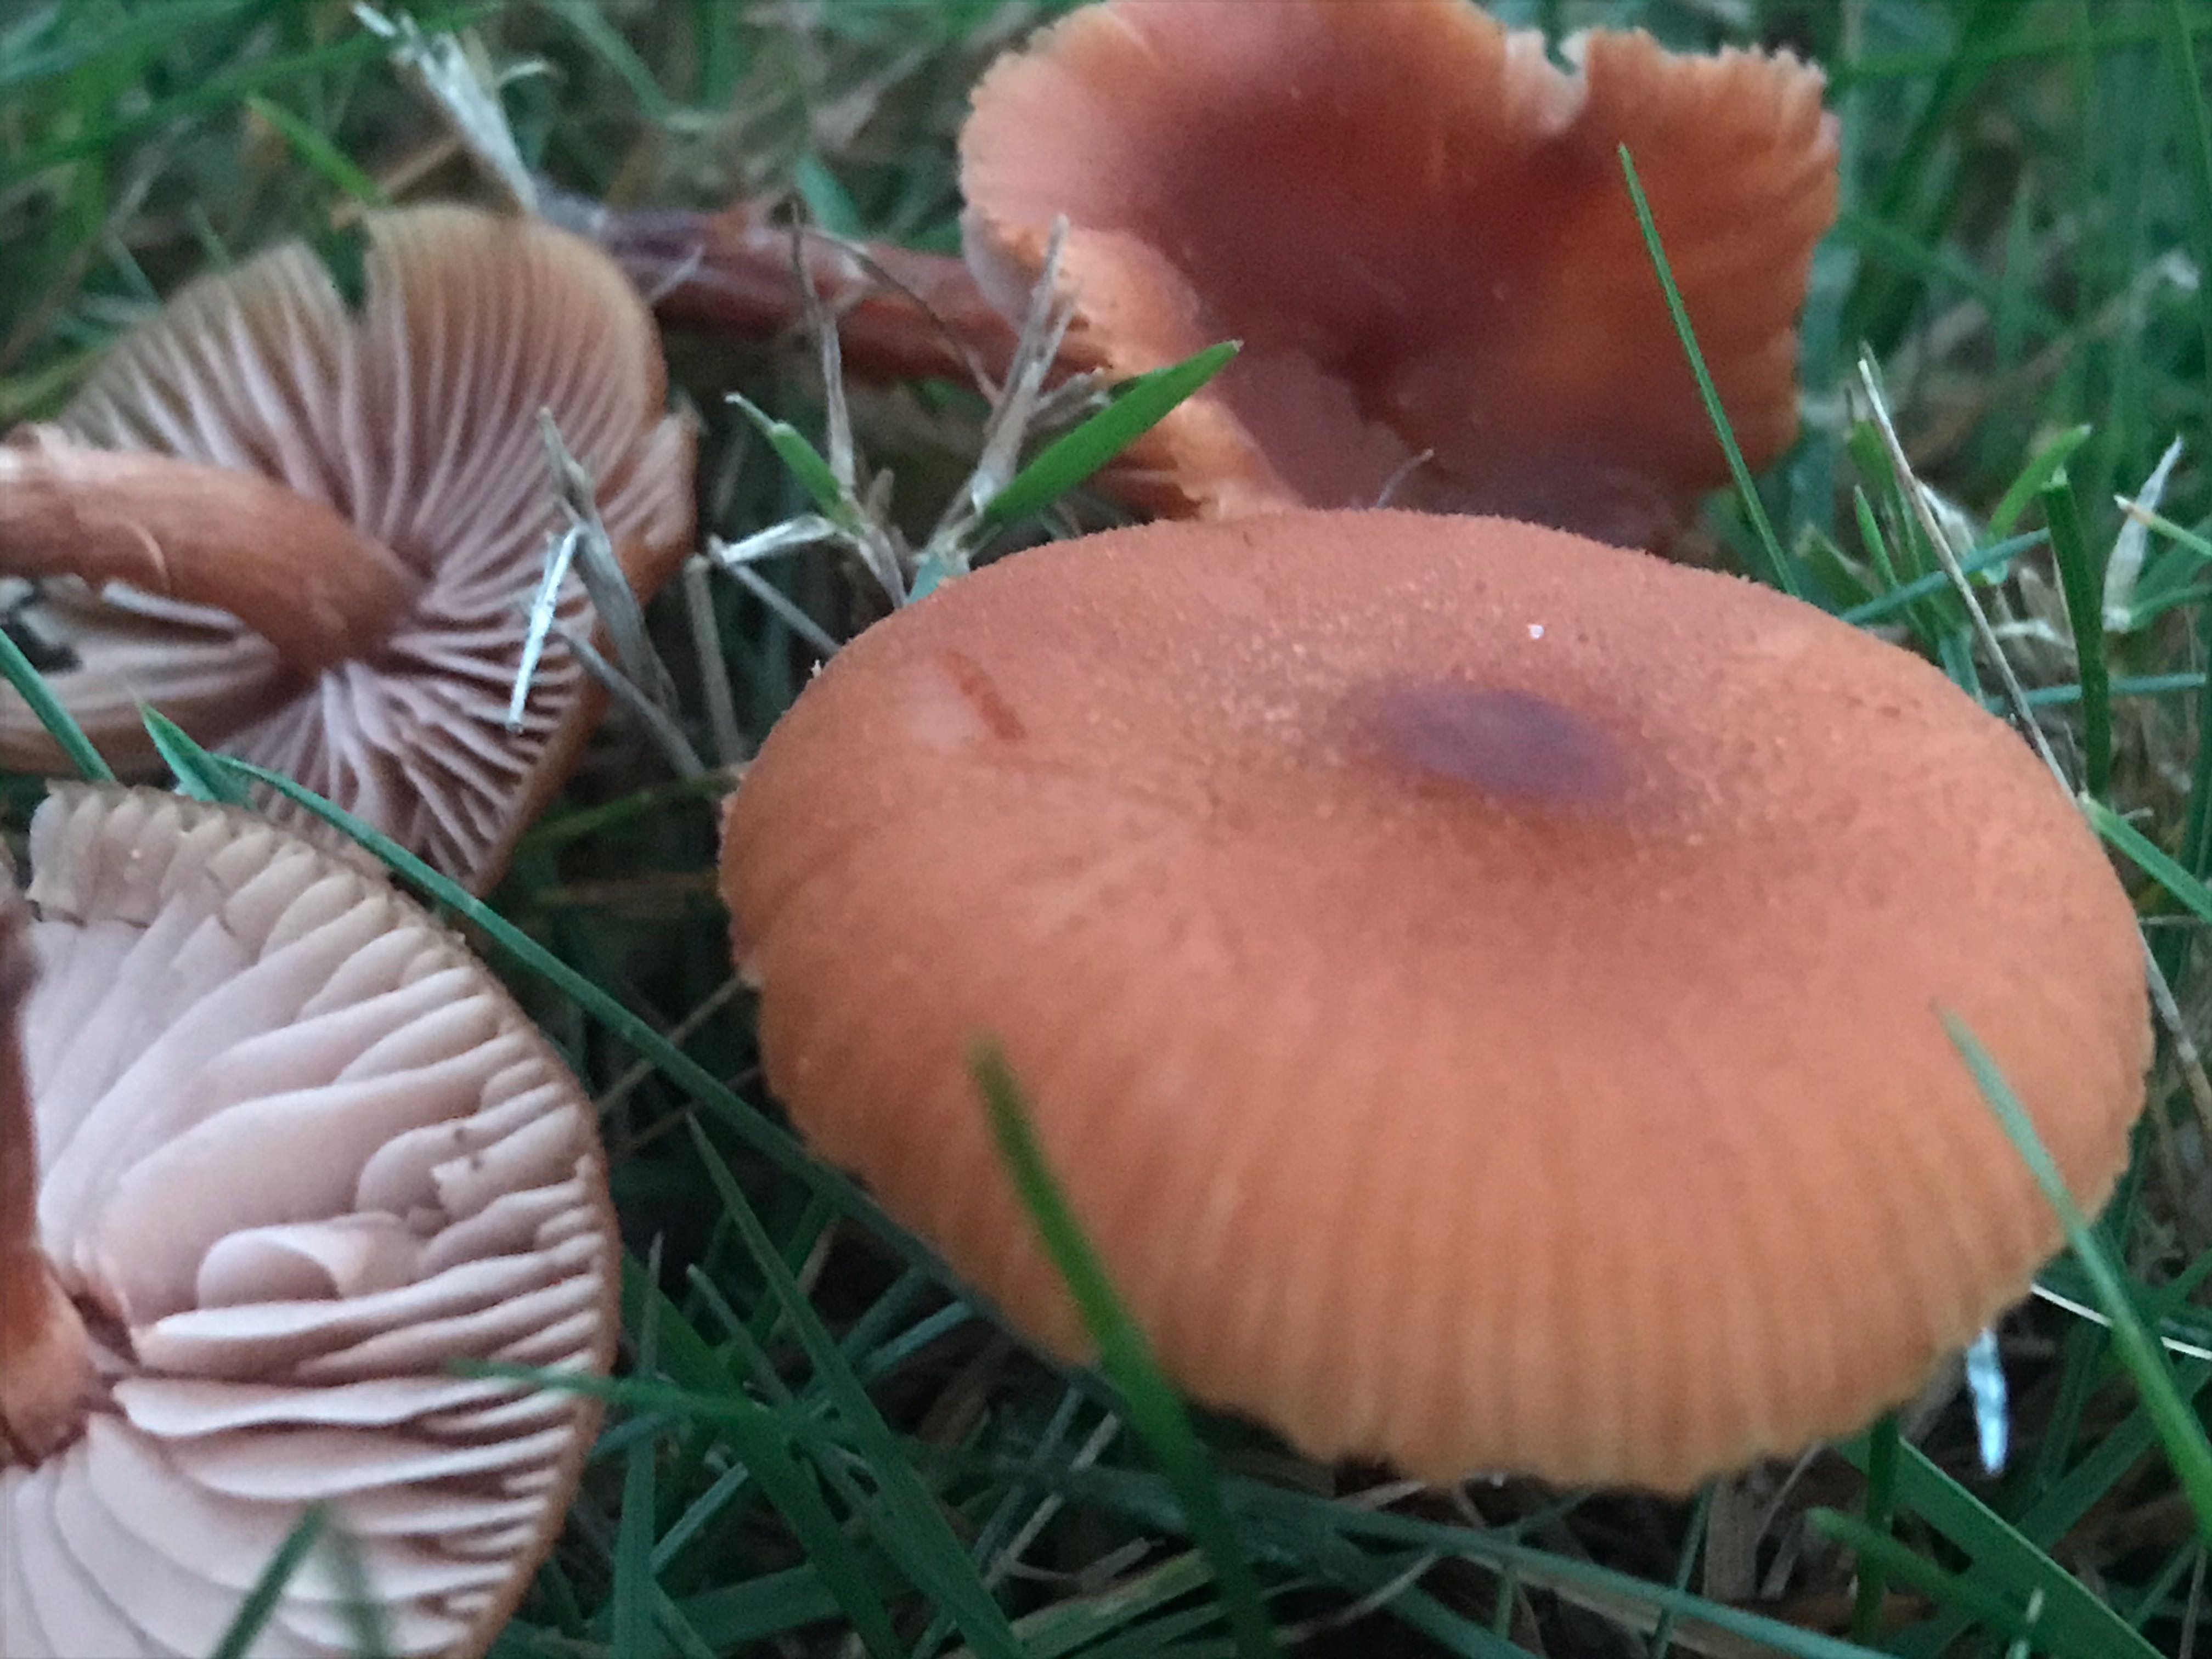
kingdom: Fungi
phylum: Basidiomycota
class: Agaricomycetes
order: Agaricales
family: Hydnangiaceae
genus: Laccaria
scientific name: Laccaria proxima
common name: stor ametysthat
